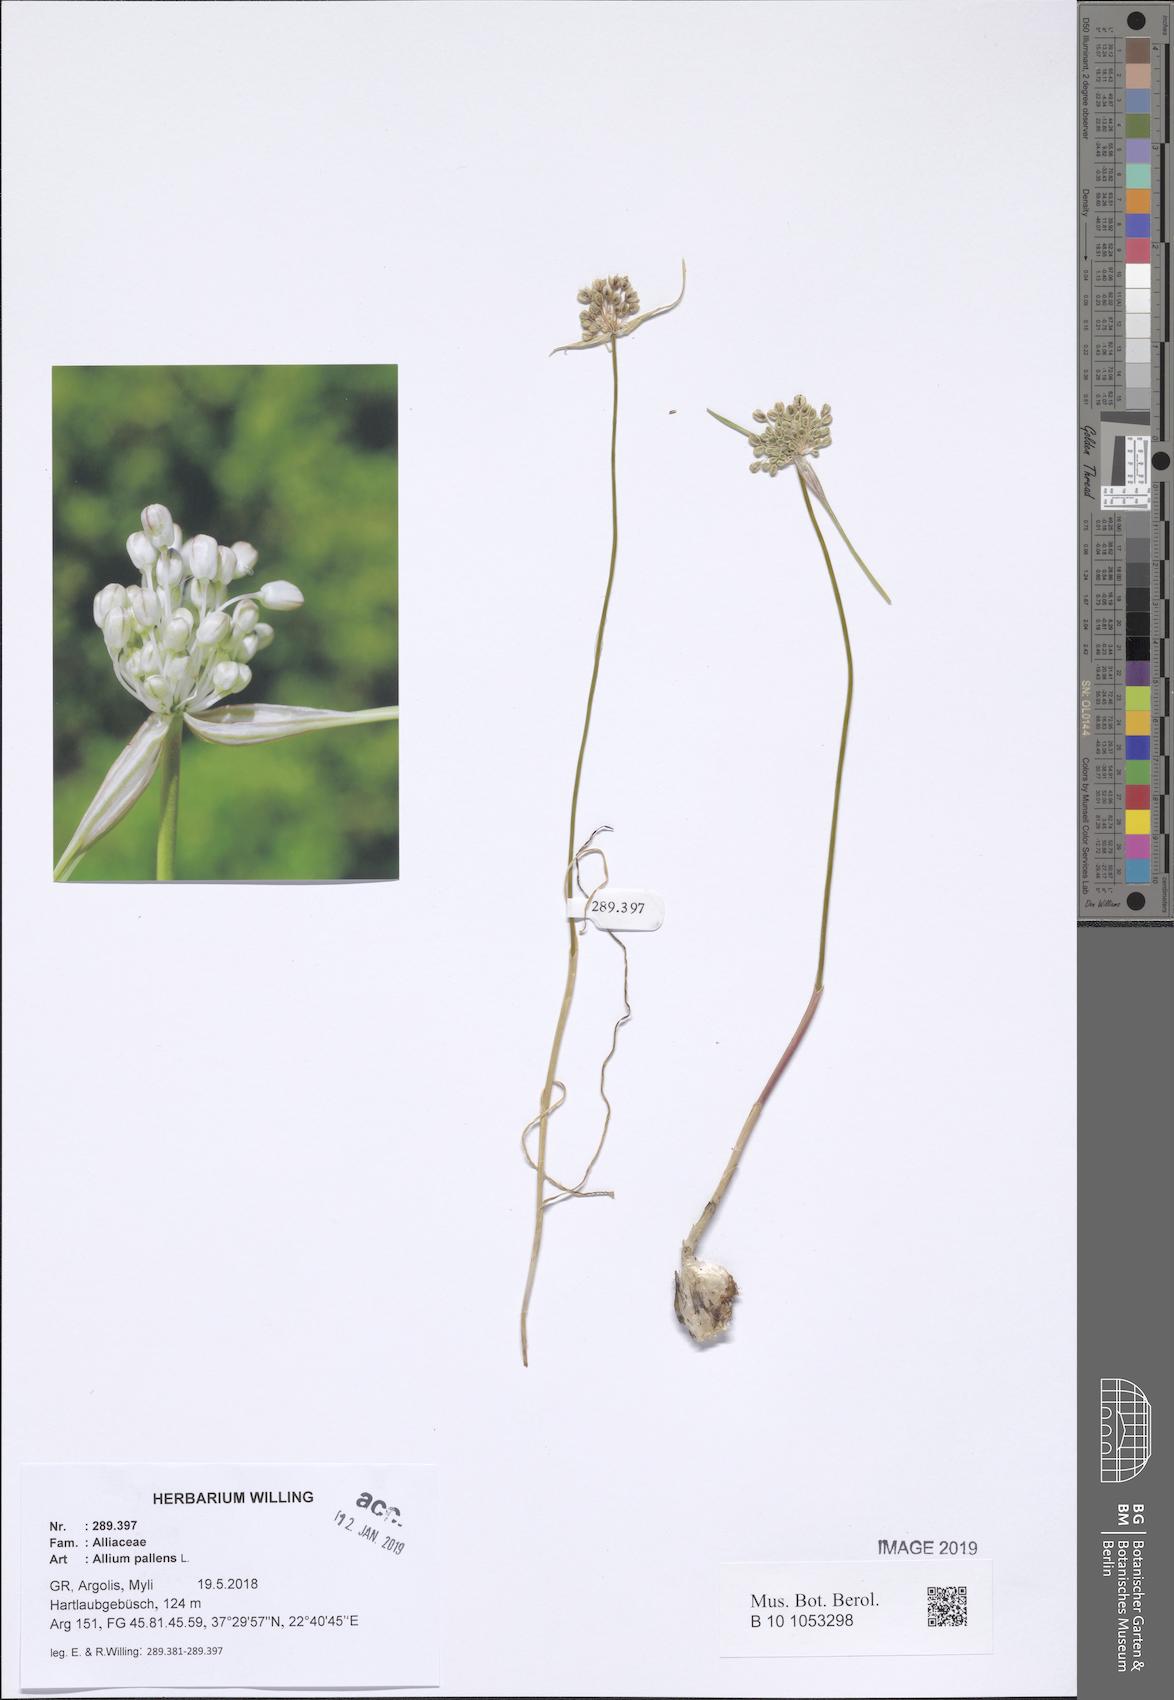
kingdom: Plantae
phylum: Tracheophyta
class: Liliopsida
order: Asparagales
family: Amaryllidaceae
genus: Allium
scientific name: Allium pallens
